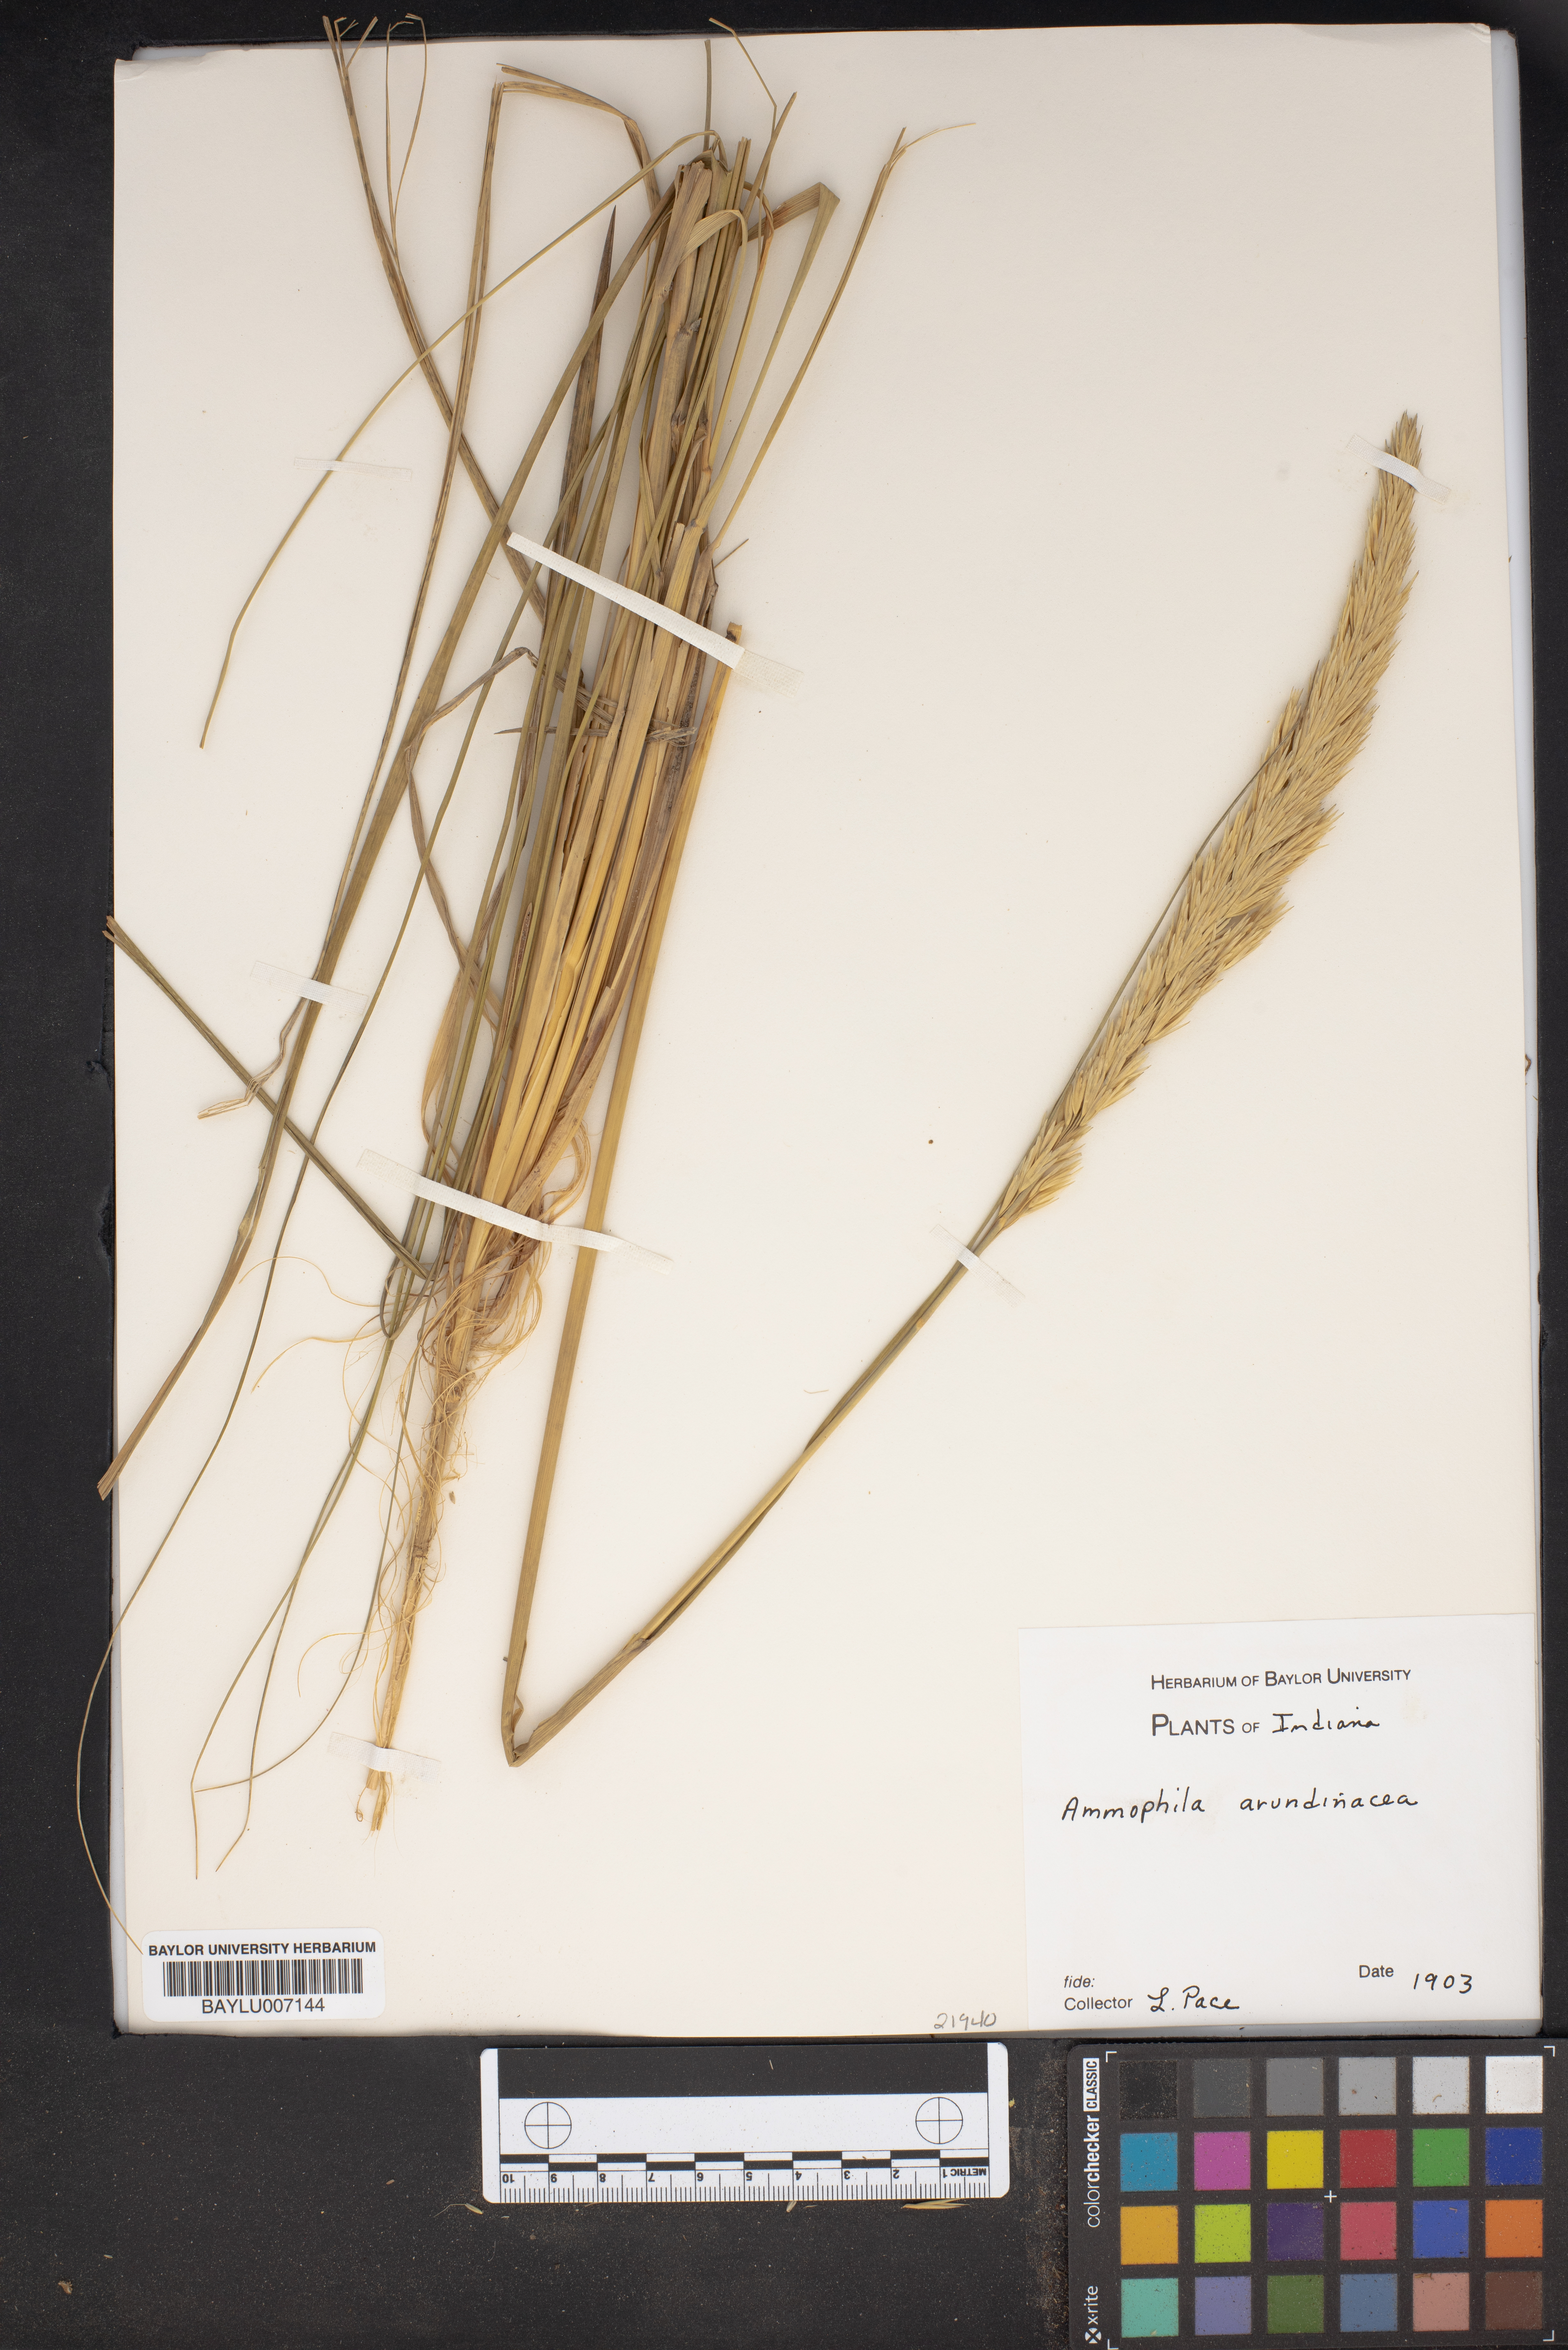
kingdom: Plantae
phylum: Tracheophyta
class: Liliopsida
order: Poales
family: Poaceae
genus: Calamagrostis
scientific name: Calamagrostis arenaria
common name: European beachgrass
